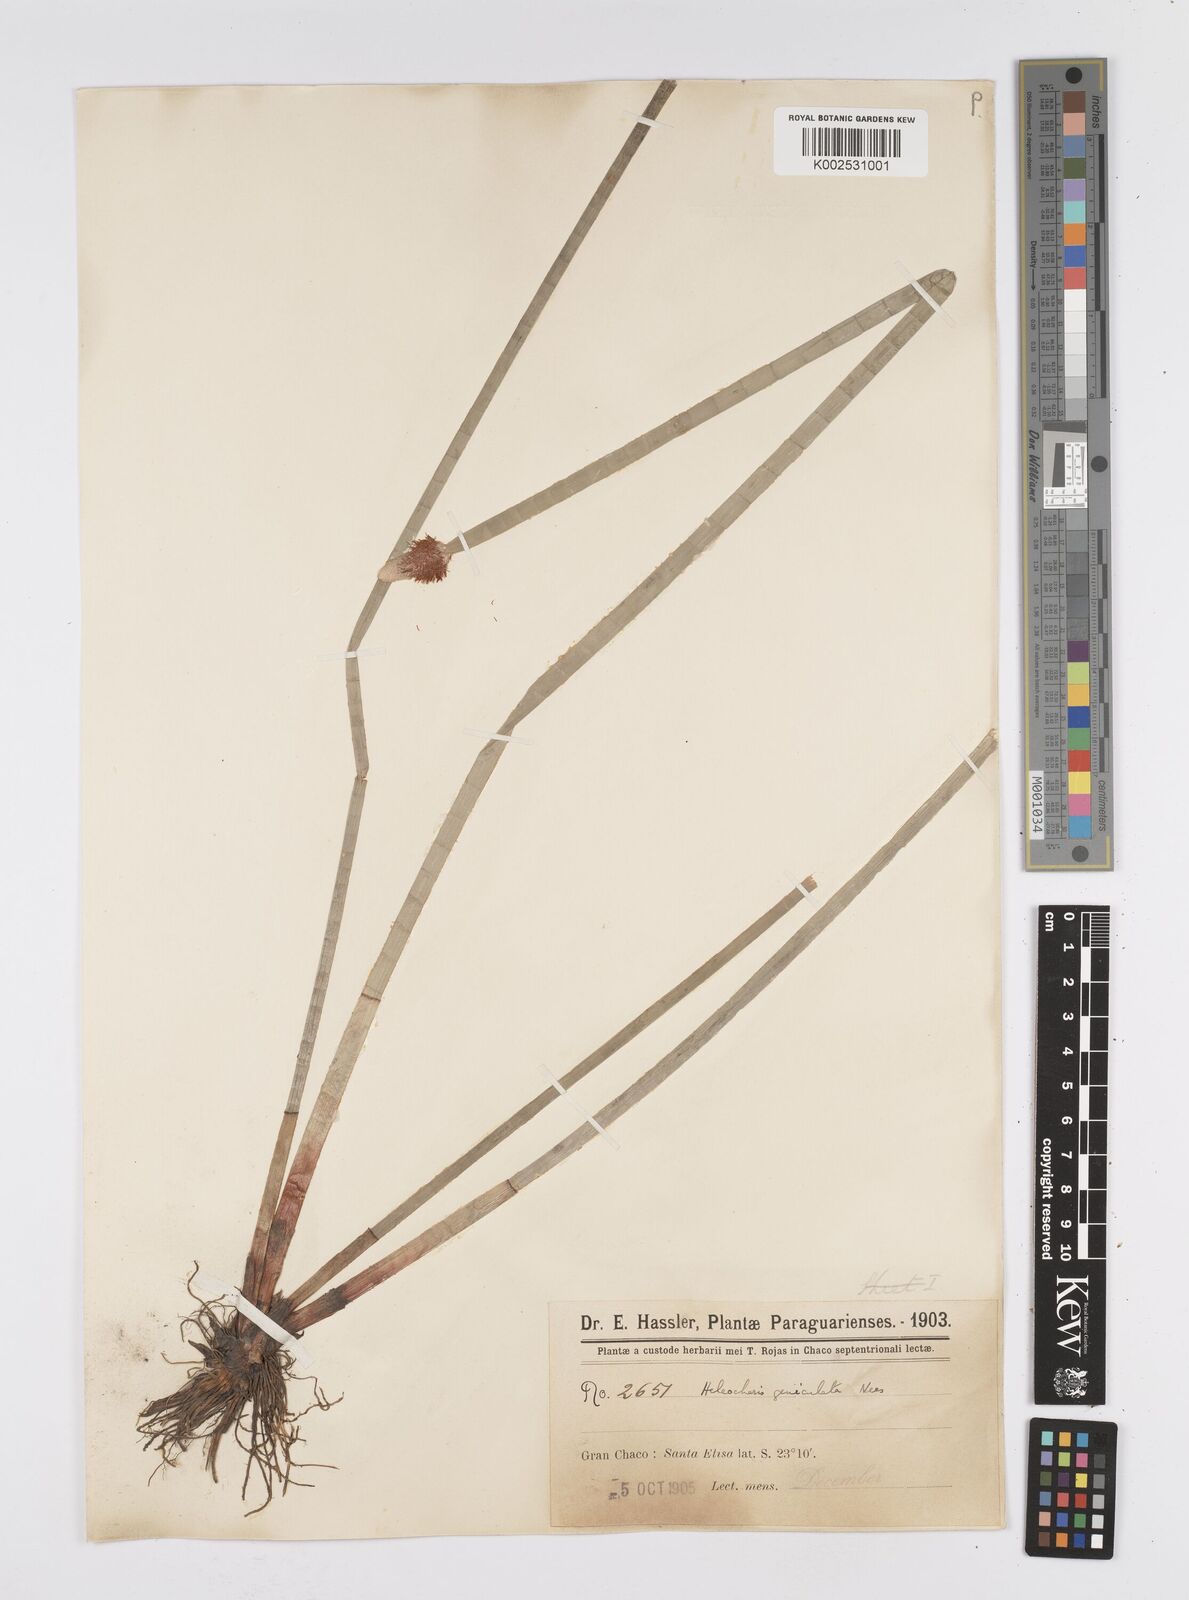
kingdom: Plantae
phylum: Tracheophyta
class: Liliopsida
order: Poales
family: Cyperaceae
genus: Eleocharis
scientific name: Eleocharis elegans
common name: Elegant spike-rush
